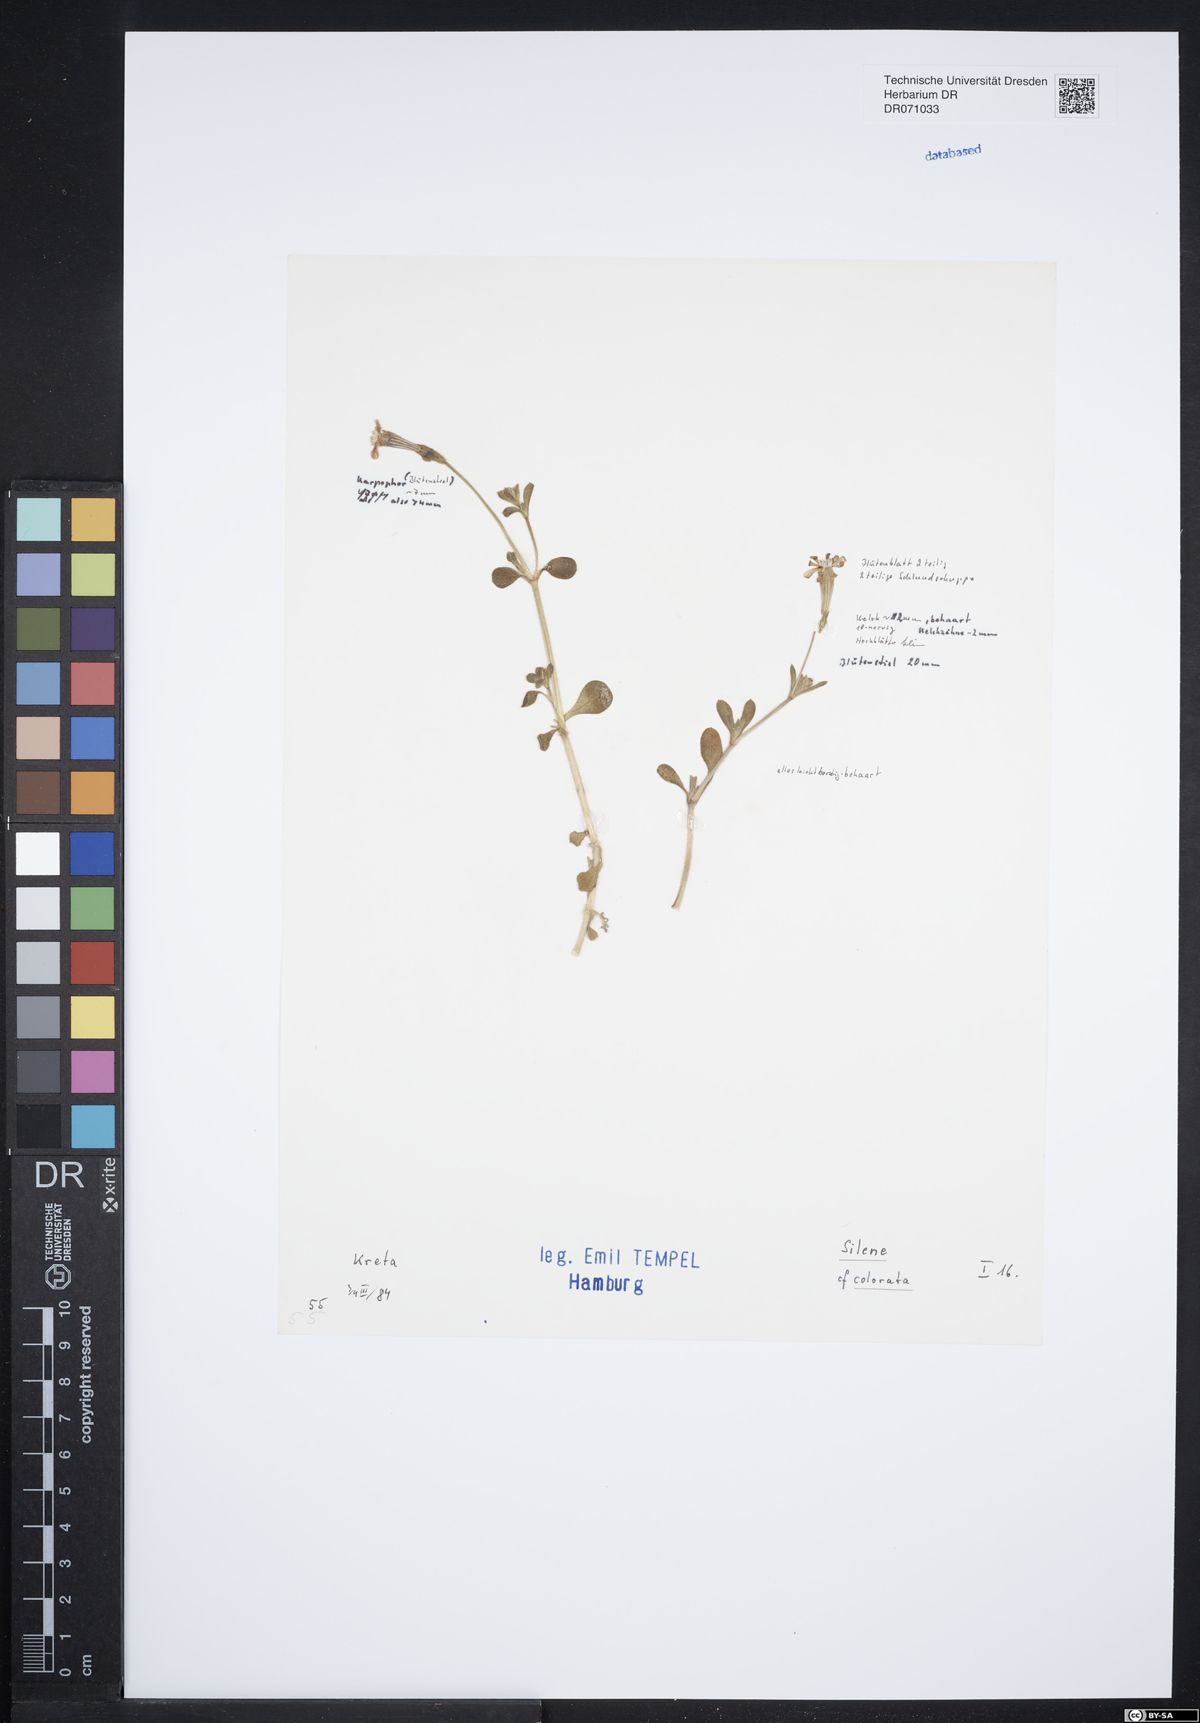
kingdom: Plantae
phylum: Tracheophyta
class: Magnoliopsida
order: Caryophyllales
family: Caryophyllaceae
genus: Silene
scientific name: Silene colorata
